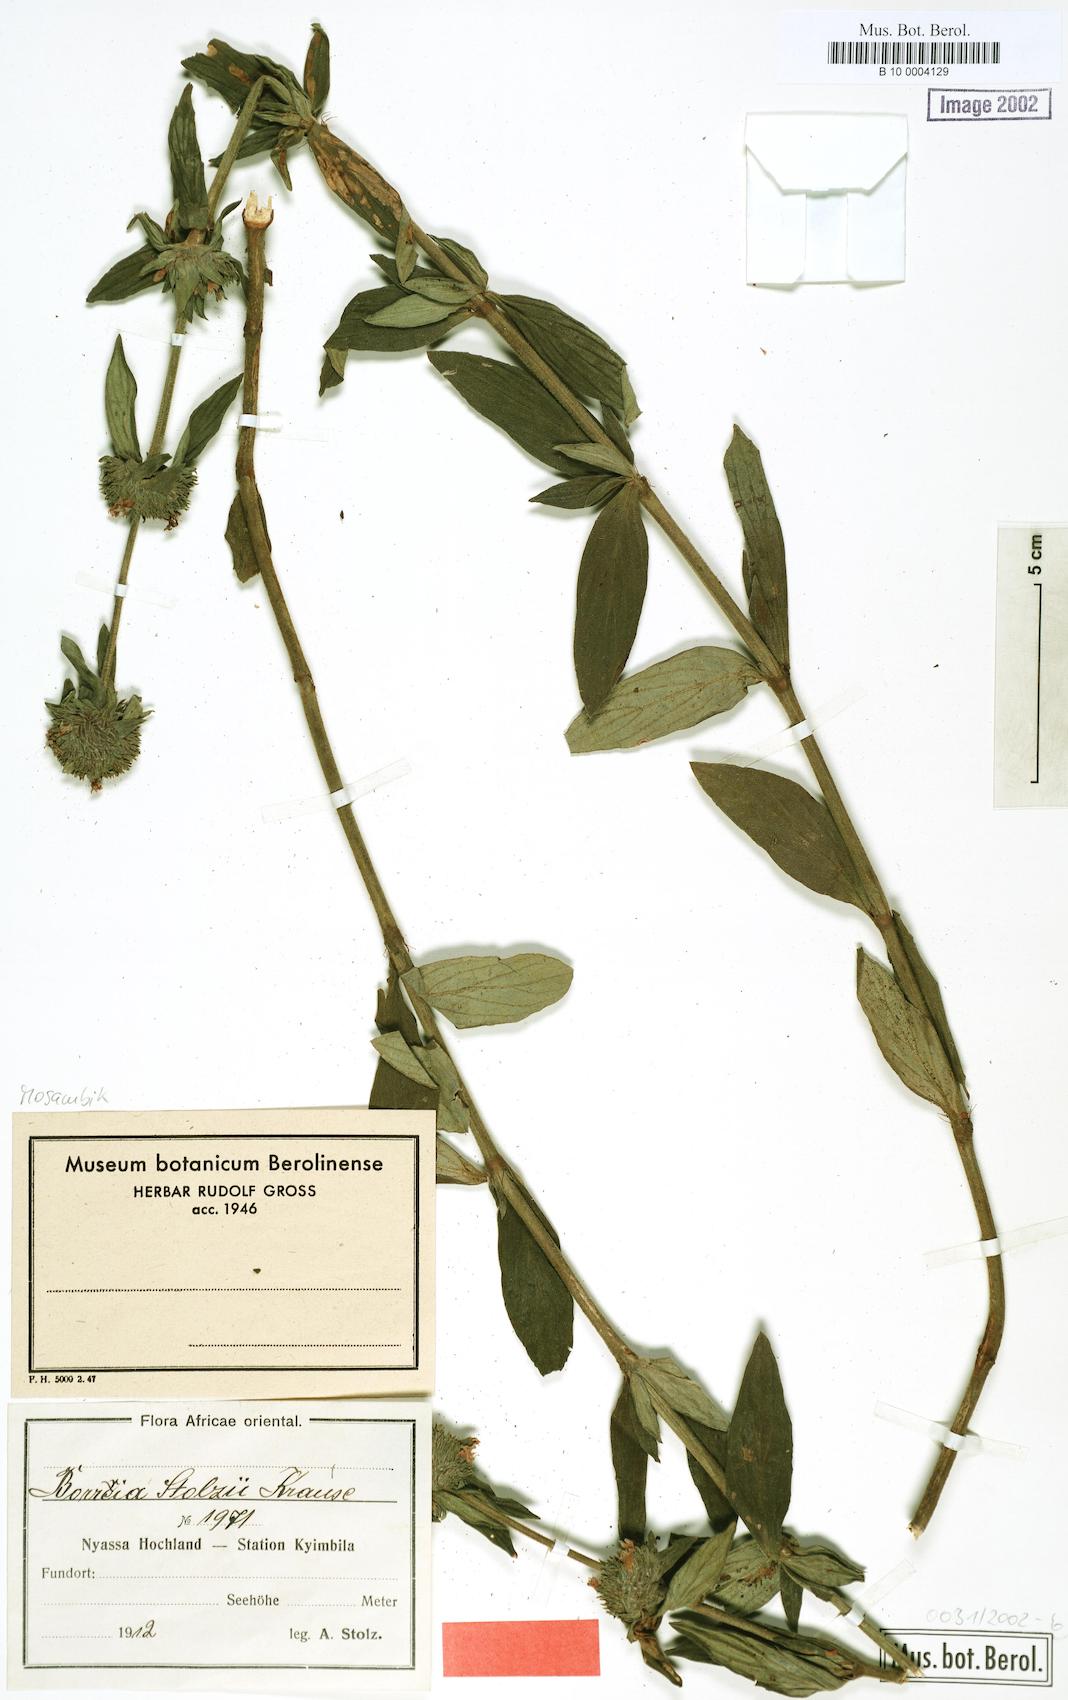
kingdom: Plantae
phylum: Tracheophyta
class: Magnoliopsida
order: Gentianales
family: Rubiaceae
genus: Spermacoce
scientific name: Spermacoce senensis
